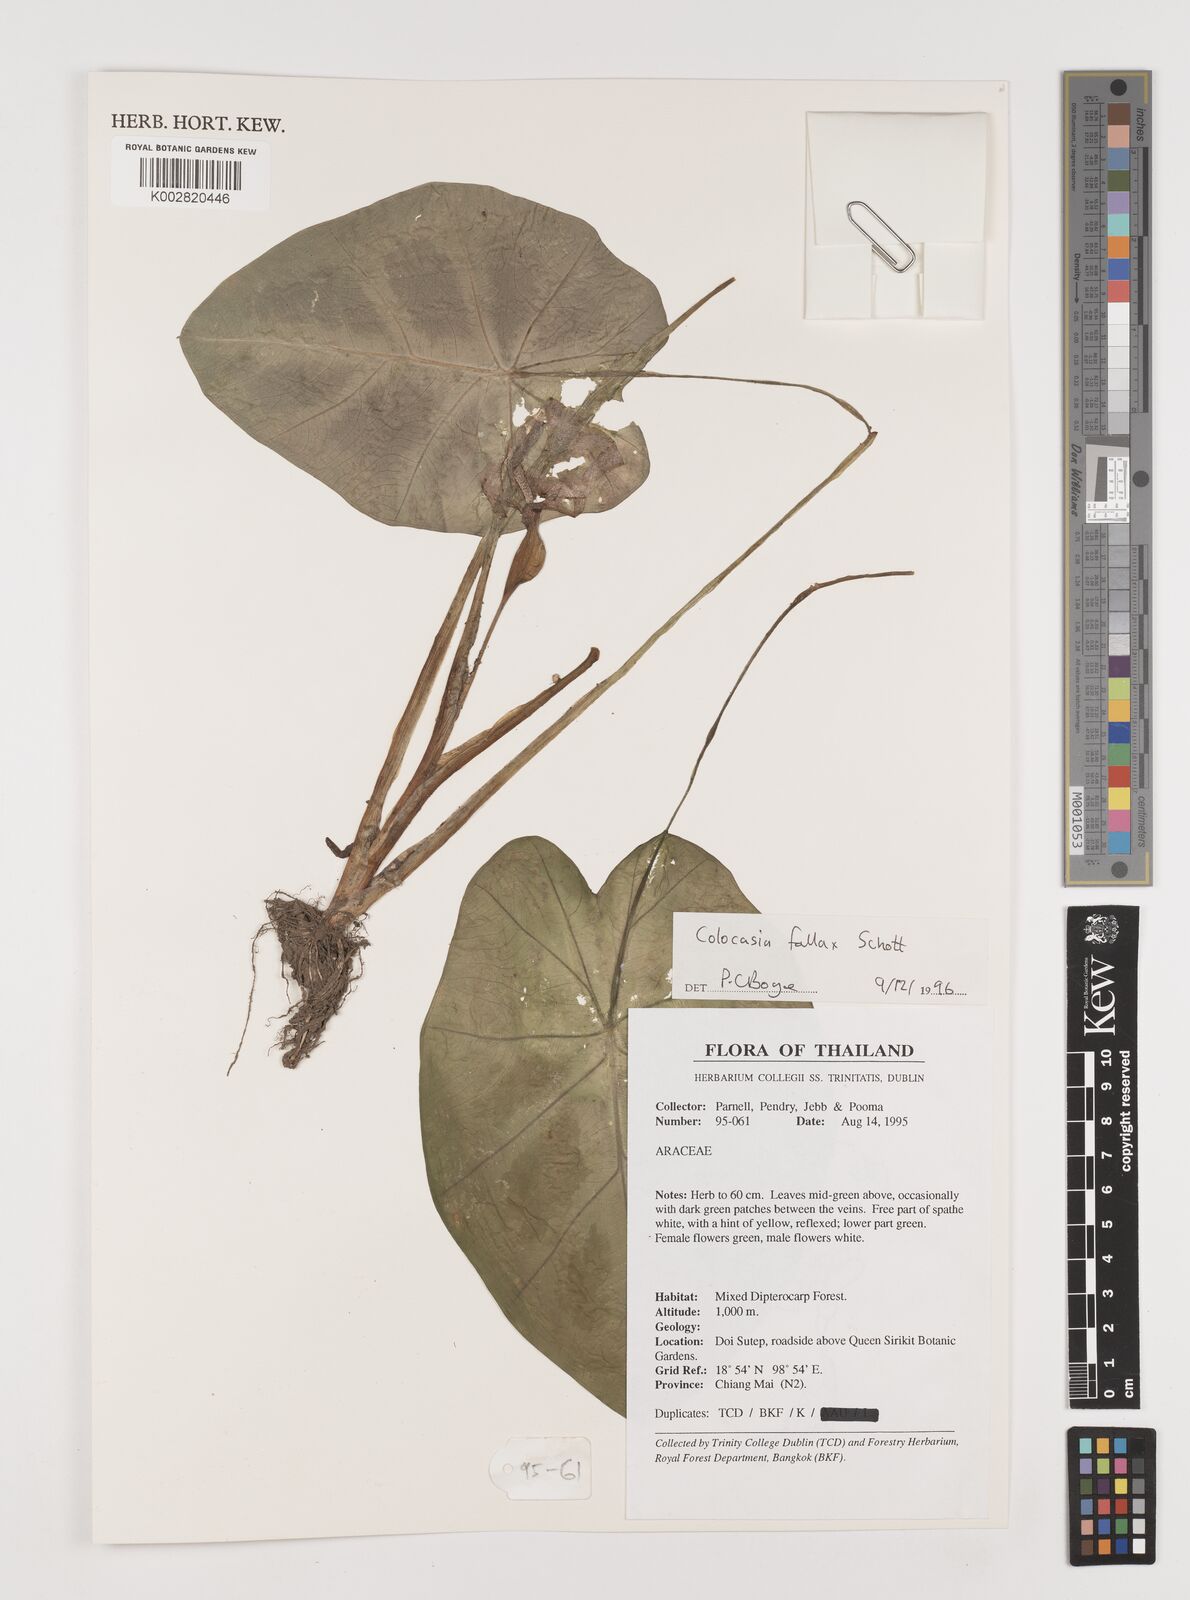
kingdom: Plantae
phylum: Tracheophyta
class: Liliopsida
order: Alismatales
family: Araceae
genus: Colocasia
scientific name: Colocasia fallax
